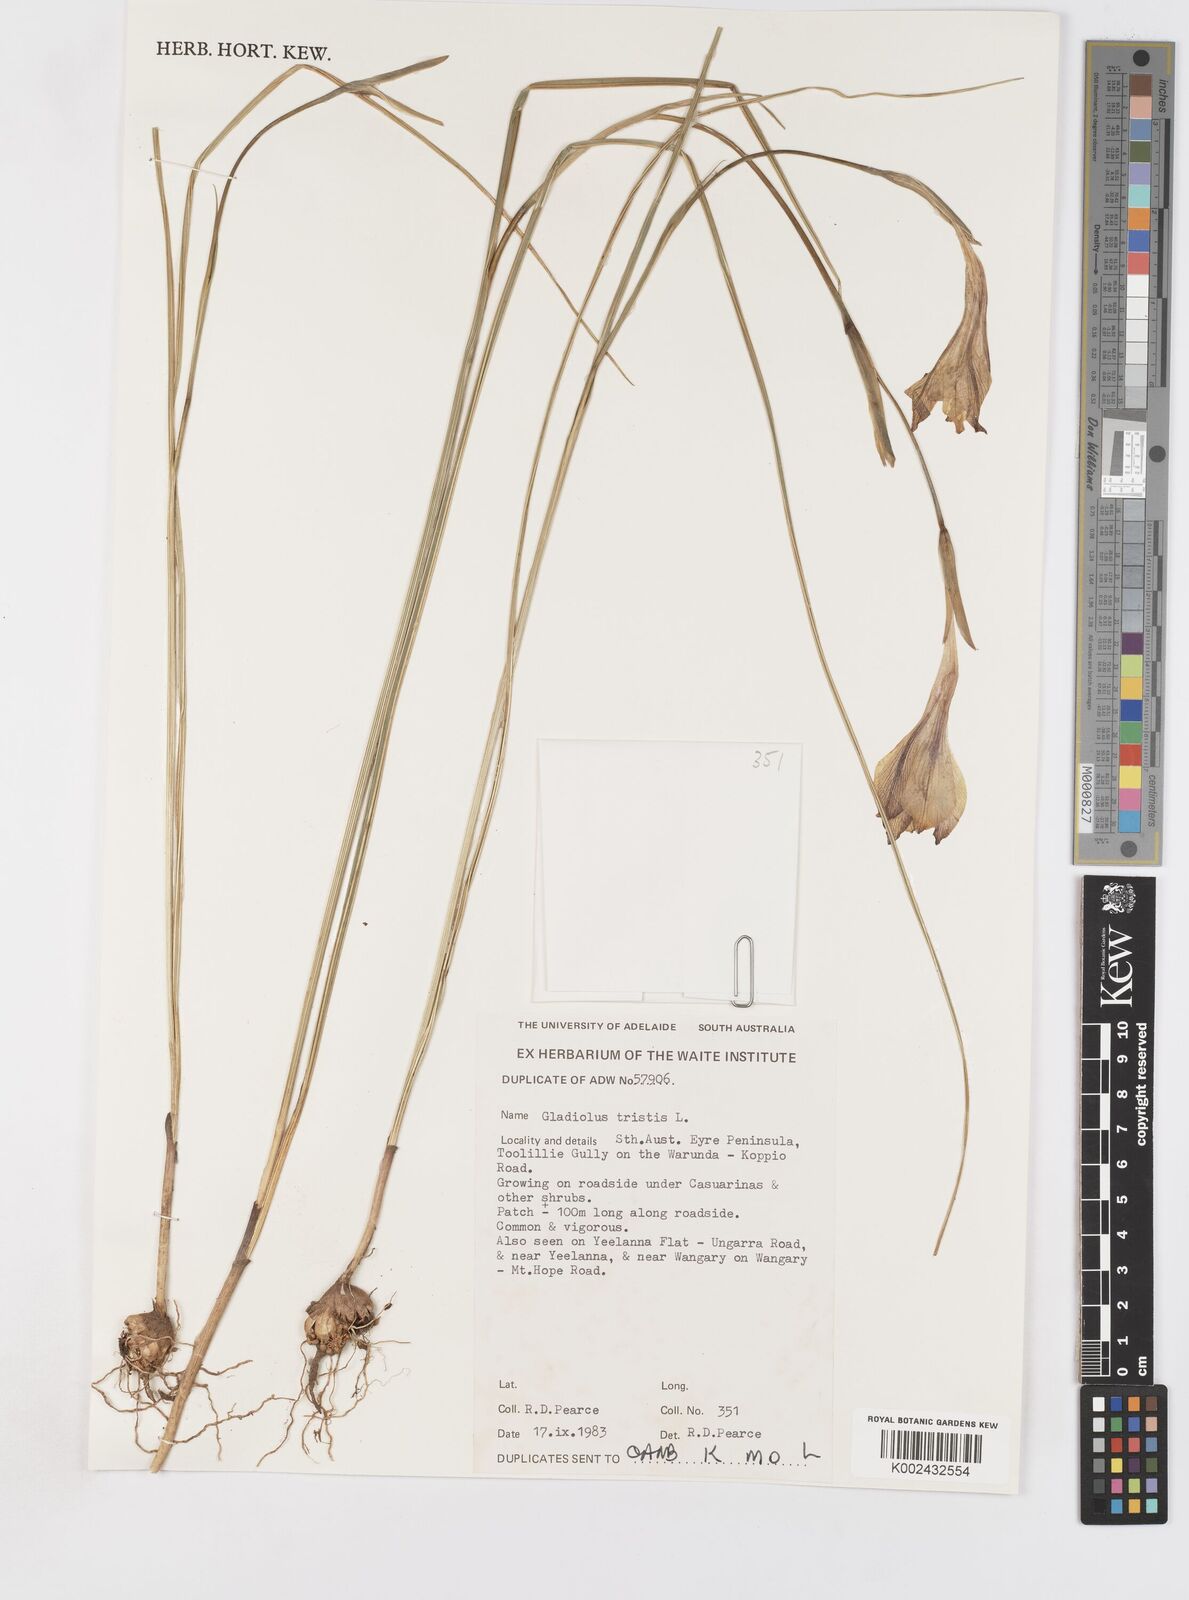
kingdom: Plantae
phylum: Tracheophyta
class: Liliopsida
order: Asparagales
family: Iridaceae
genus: Gladiolus
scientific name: Gladiolus tristis
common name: Ever-flowering gladiolus
